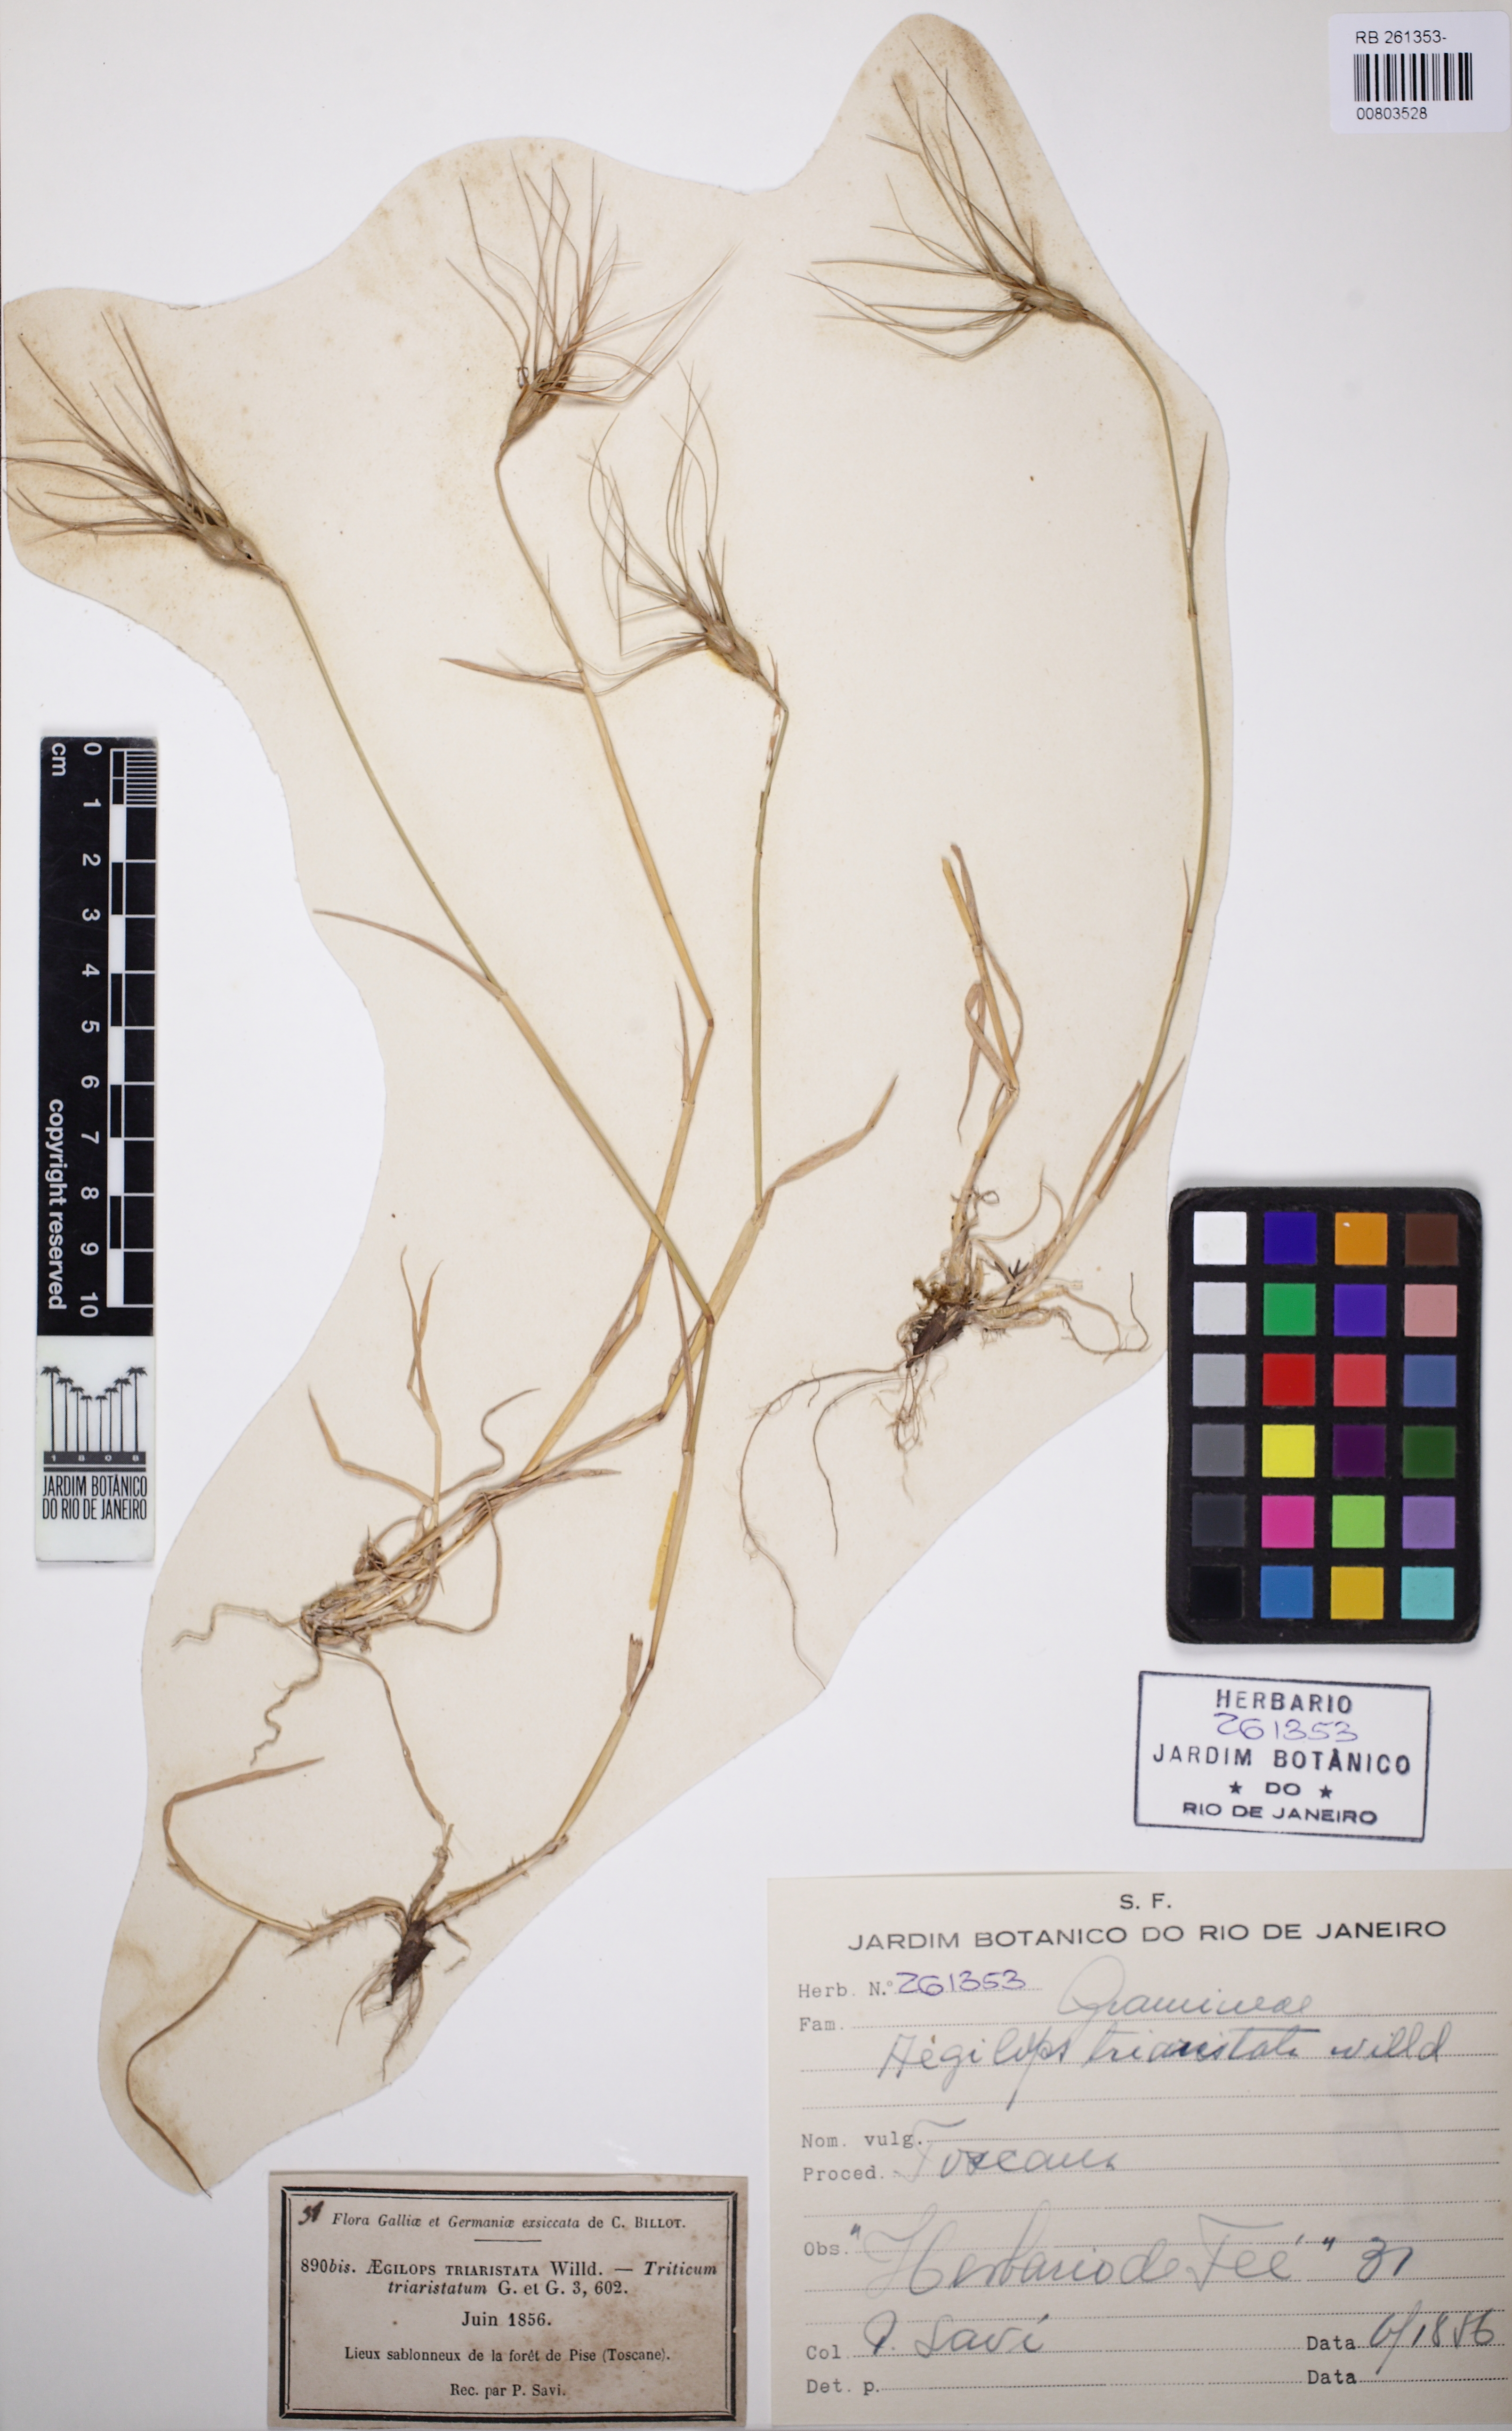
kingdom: Plantae
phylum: Tracheophyta
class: Liliopsida
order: Poales
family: Poaceae
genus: Aegilops
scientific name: Aegilops neglecta
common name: Three-awn goat grass
